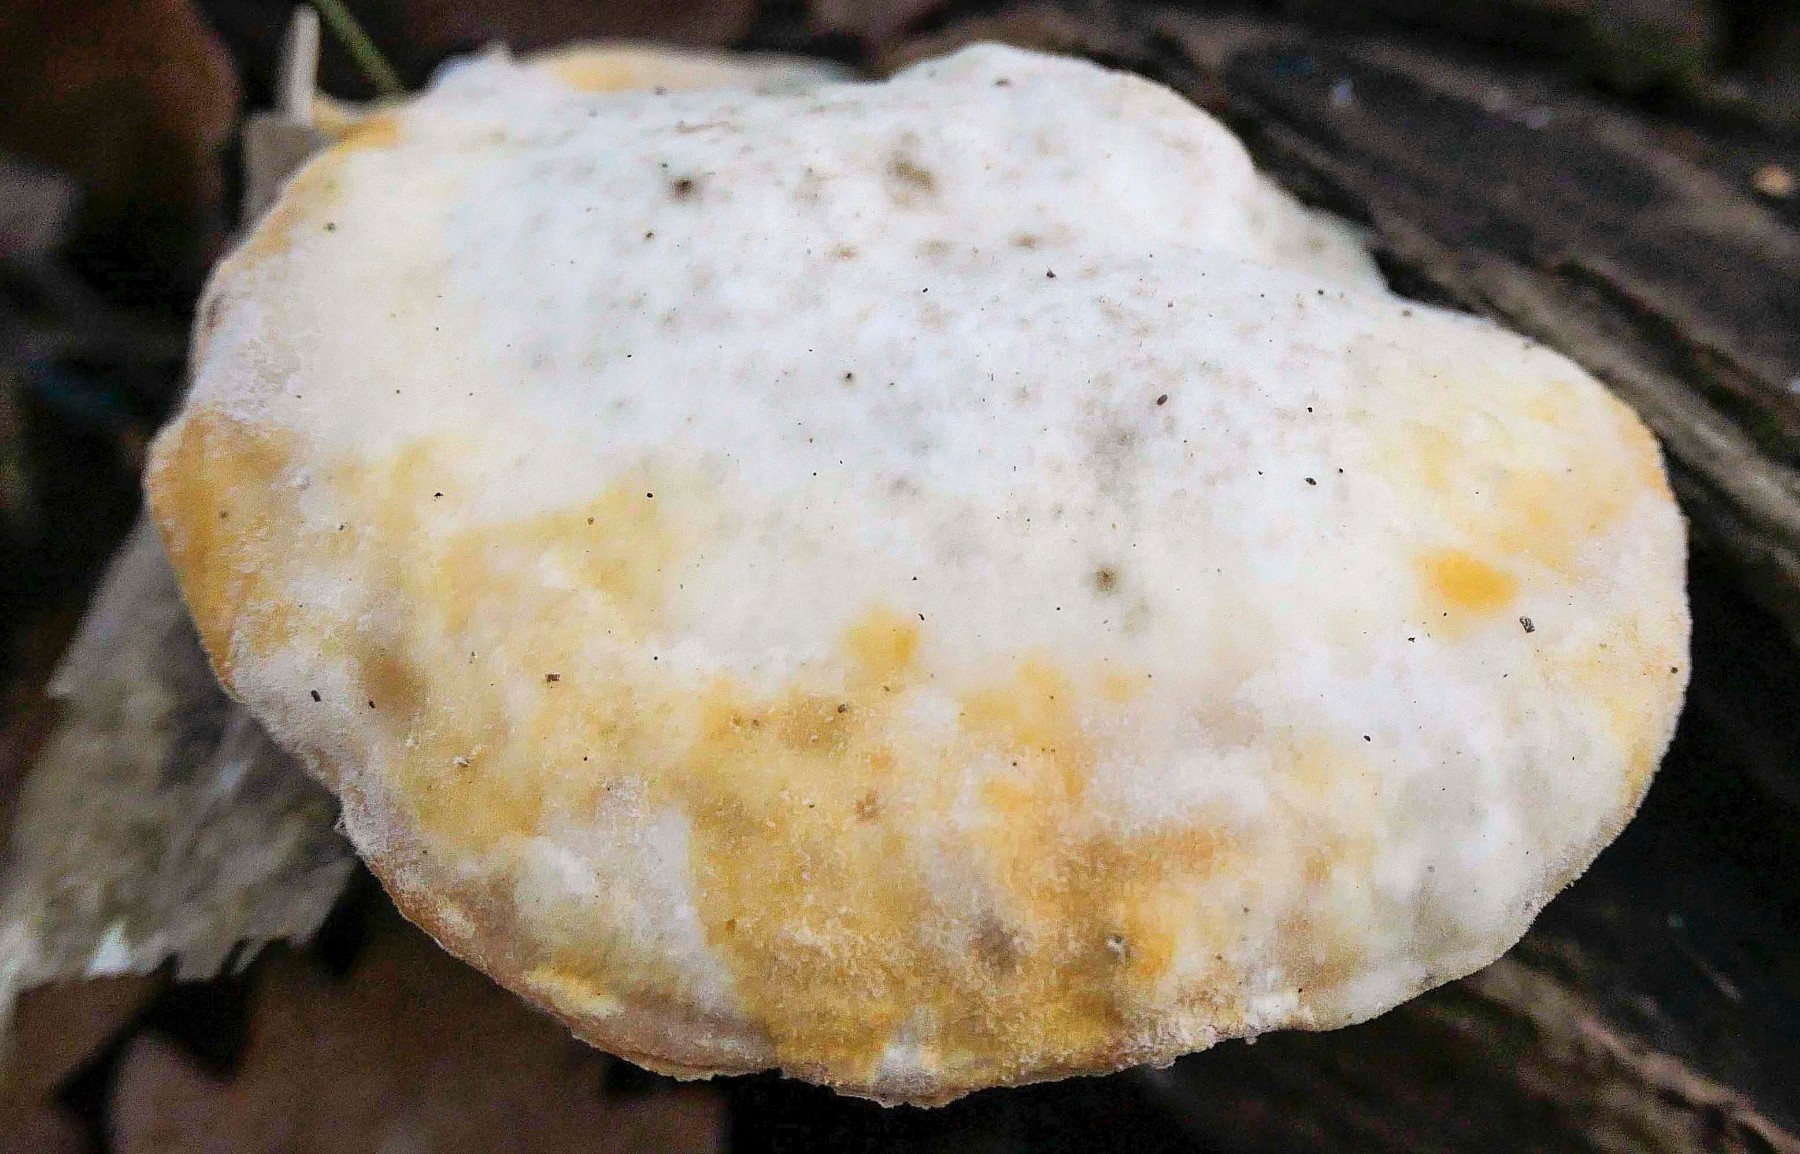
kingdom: Fungi
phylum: Basidiomycota
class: Agaricomycetes
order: Polyporales
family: Incrustoporiaceae
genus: Tyromyces
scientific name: Tyromyces chioneus
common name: stor blødporesvamp
